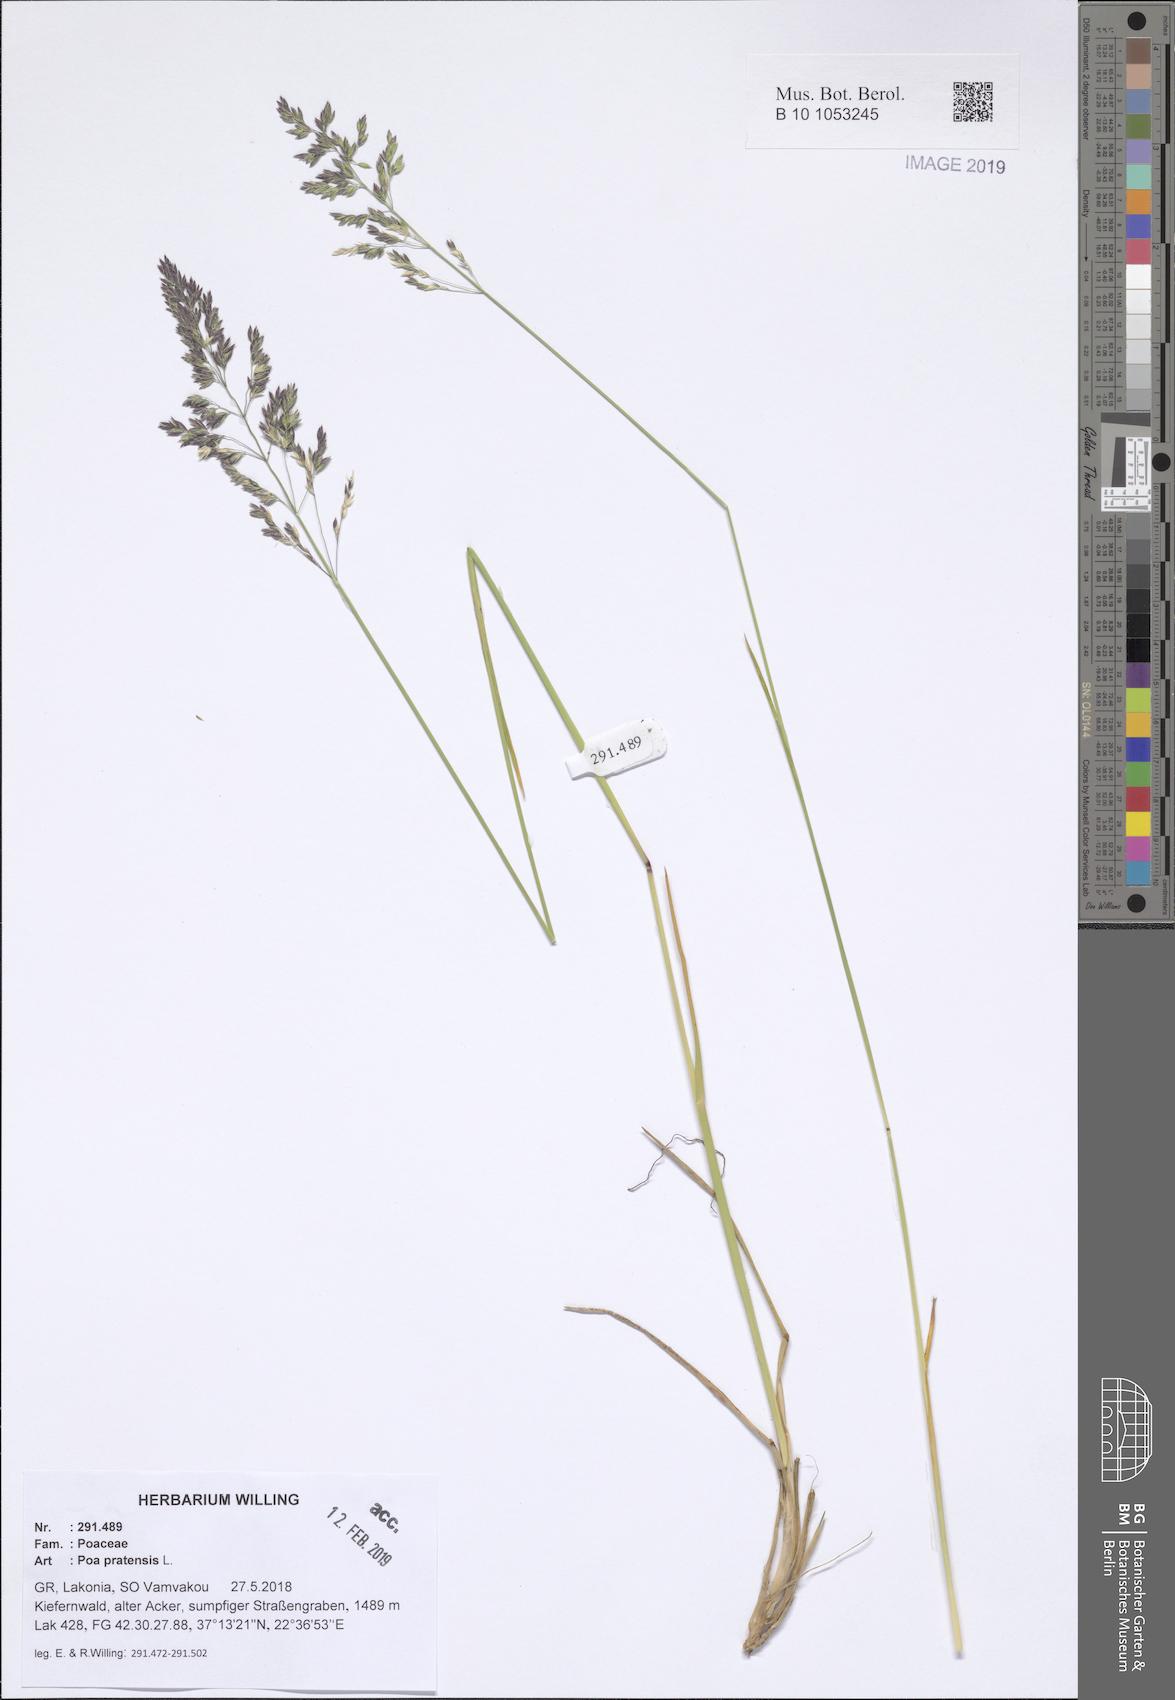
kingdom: Plantae
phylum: Tracheophyta
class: Liliopsida
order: Poales
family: Poaceae
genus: Poa
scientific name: Poa pratensis
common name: Kentucky bluegrass
